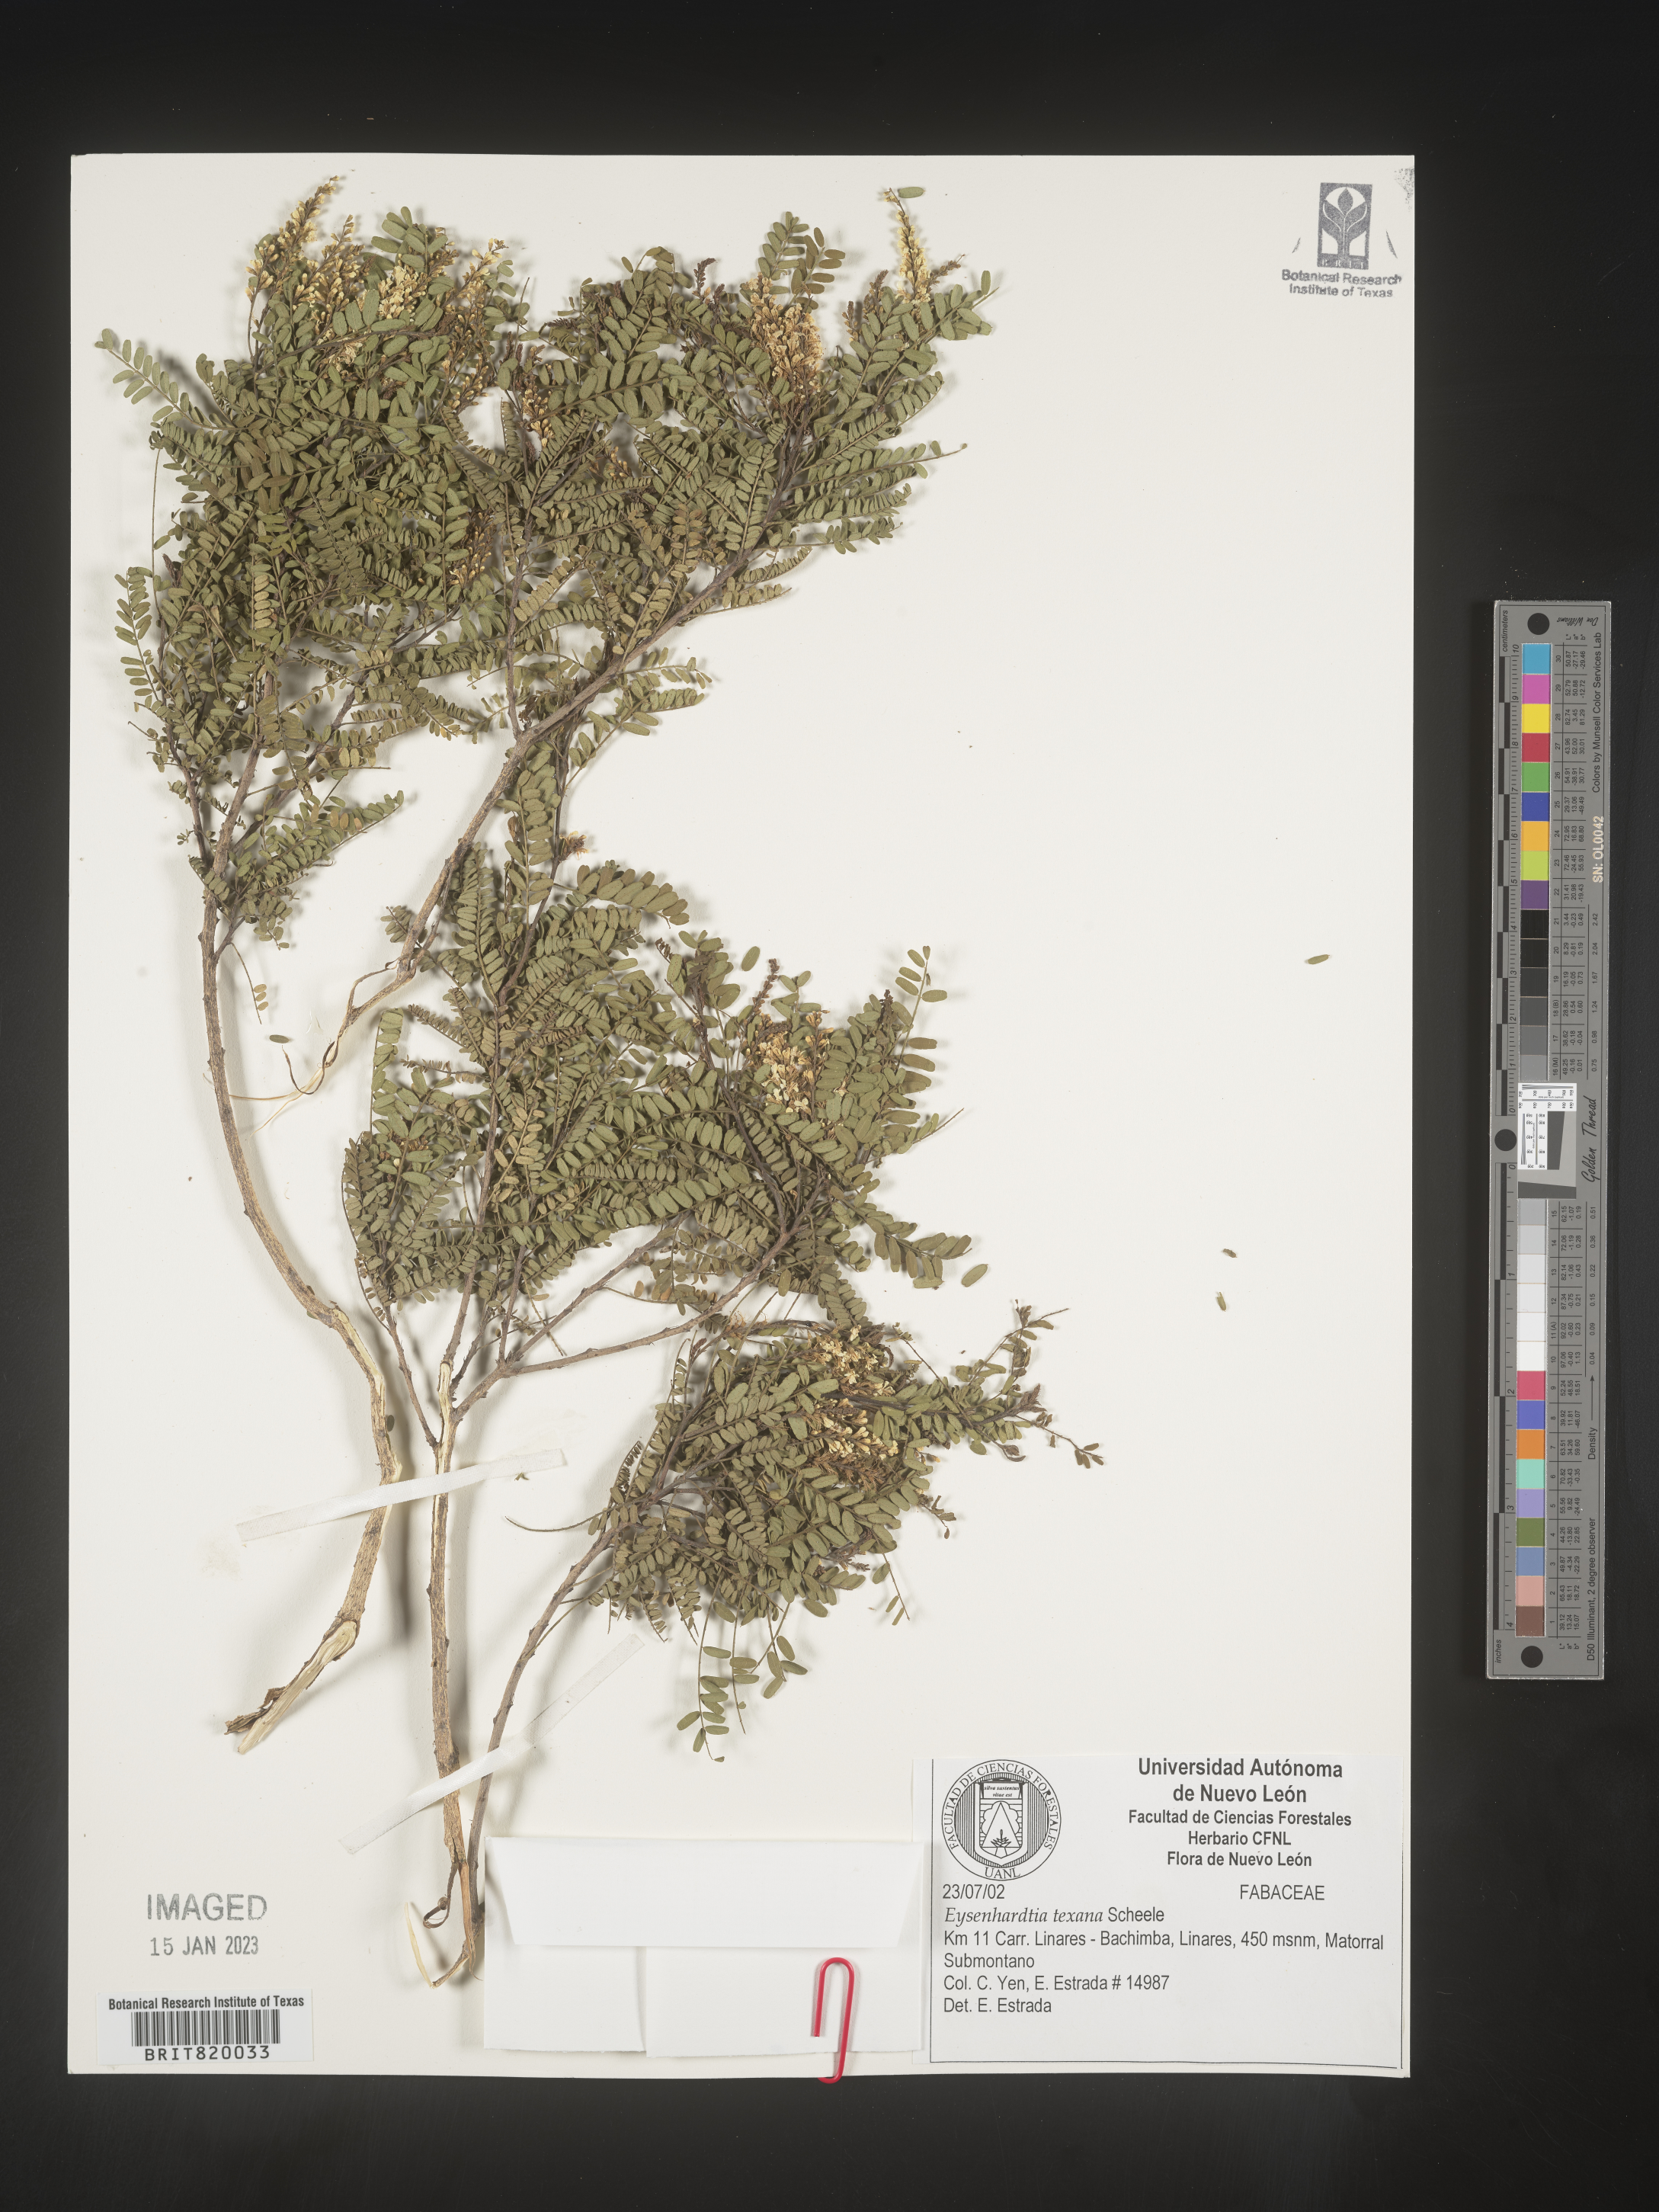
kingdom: Plantae
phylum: Tracheophyta
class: Magnoliopsida
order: Fabales
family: Fabaceae
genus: Eysenhardtia
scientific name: Eysenhardtia
